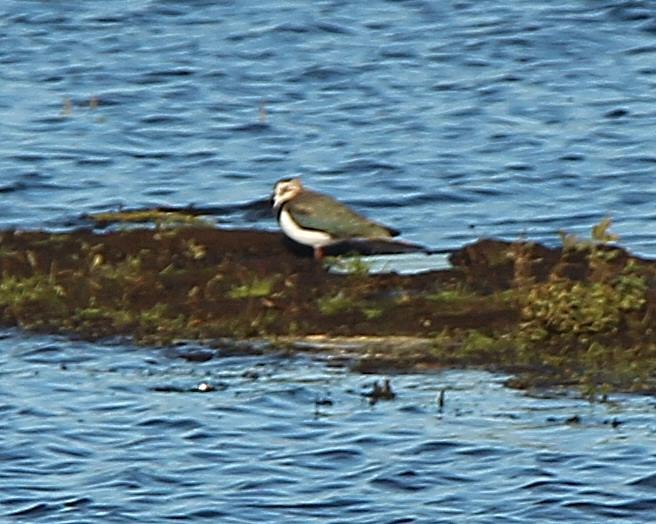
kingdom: Animalia
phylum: Chordata
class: Aves
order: Charadriiformes
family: Charadriidae
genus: Vanellus
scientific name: Vanellus vanellus
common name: Vibe
